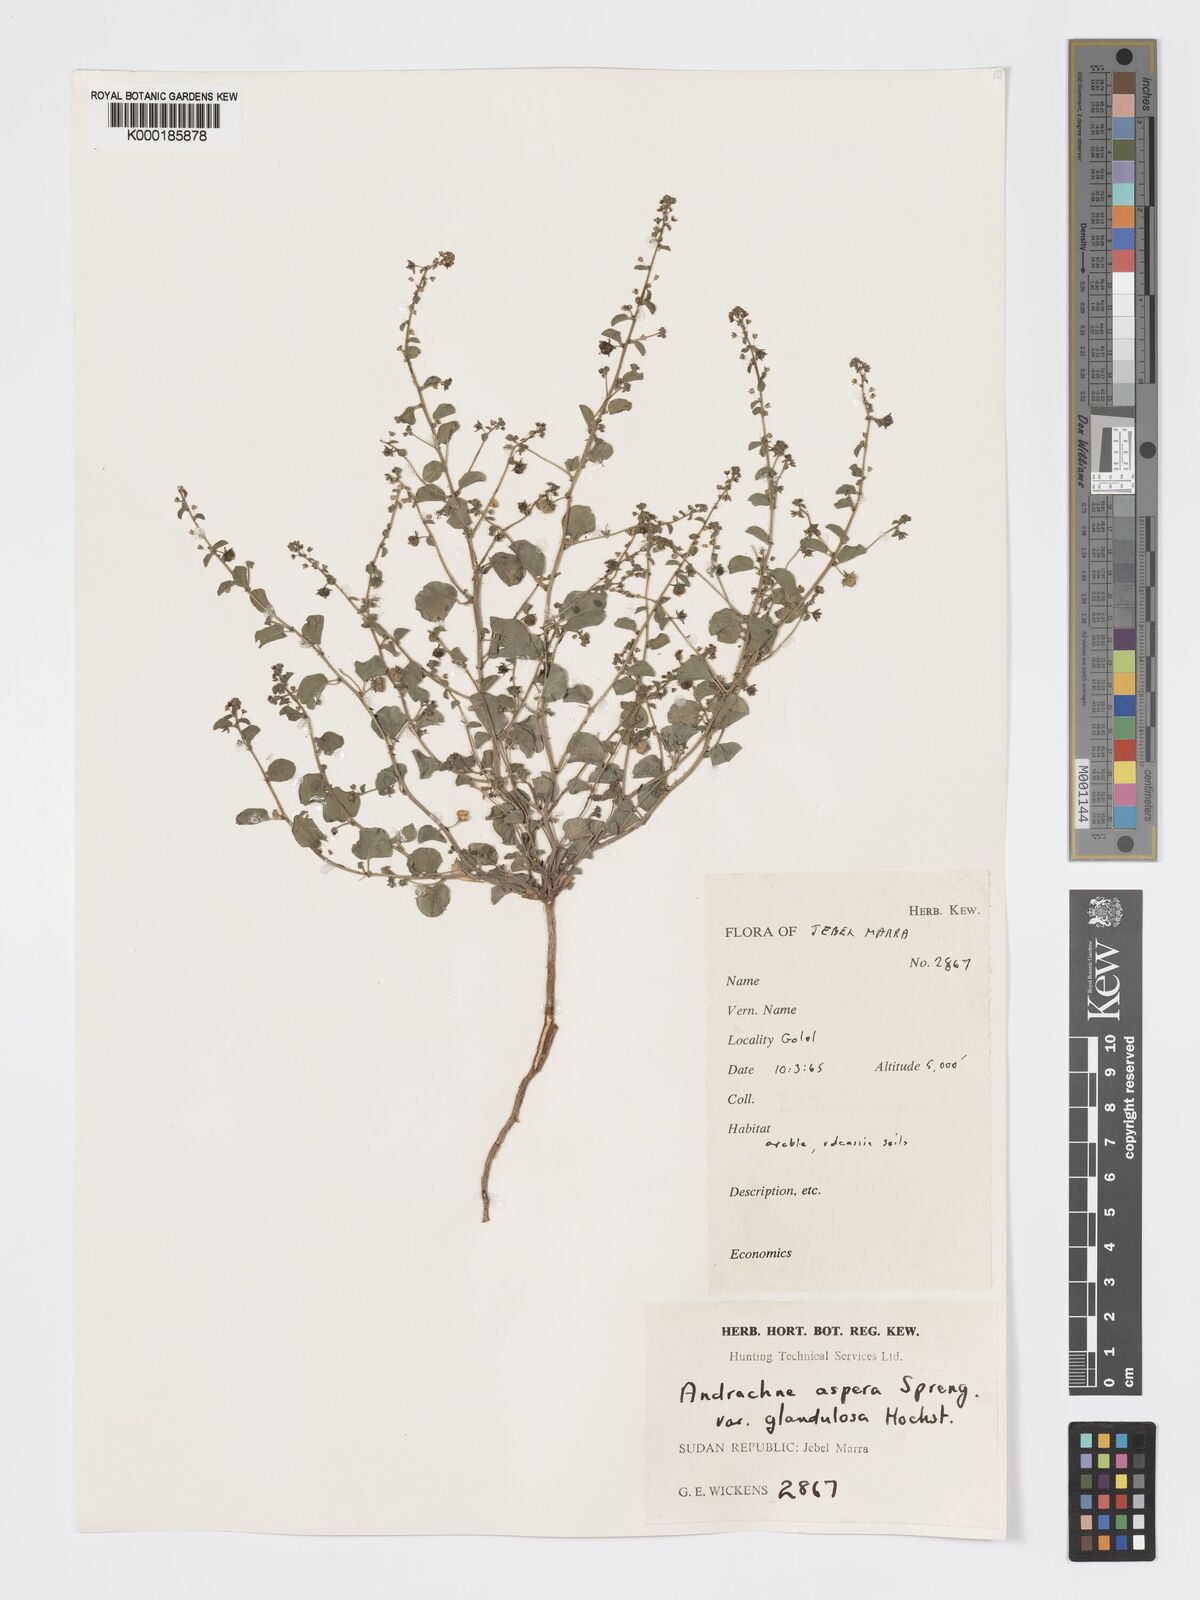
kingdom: Plantae
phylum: Tracheophyta
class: Magnoliopsida
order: Malpighiales
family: Phyllanthaceae
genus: Andrachne
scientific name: Andrachne aspera
